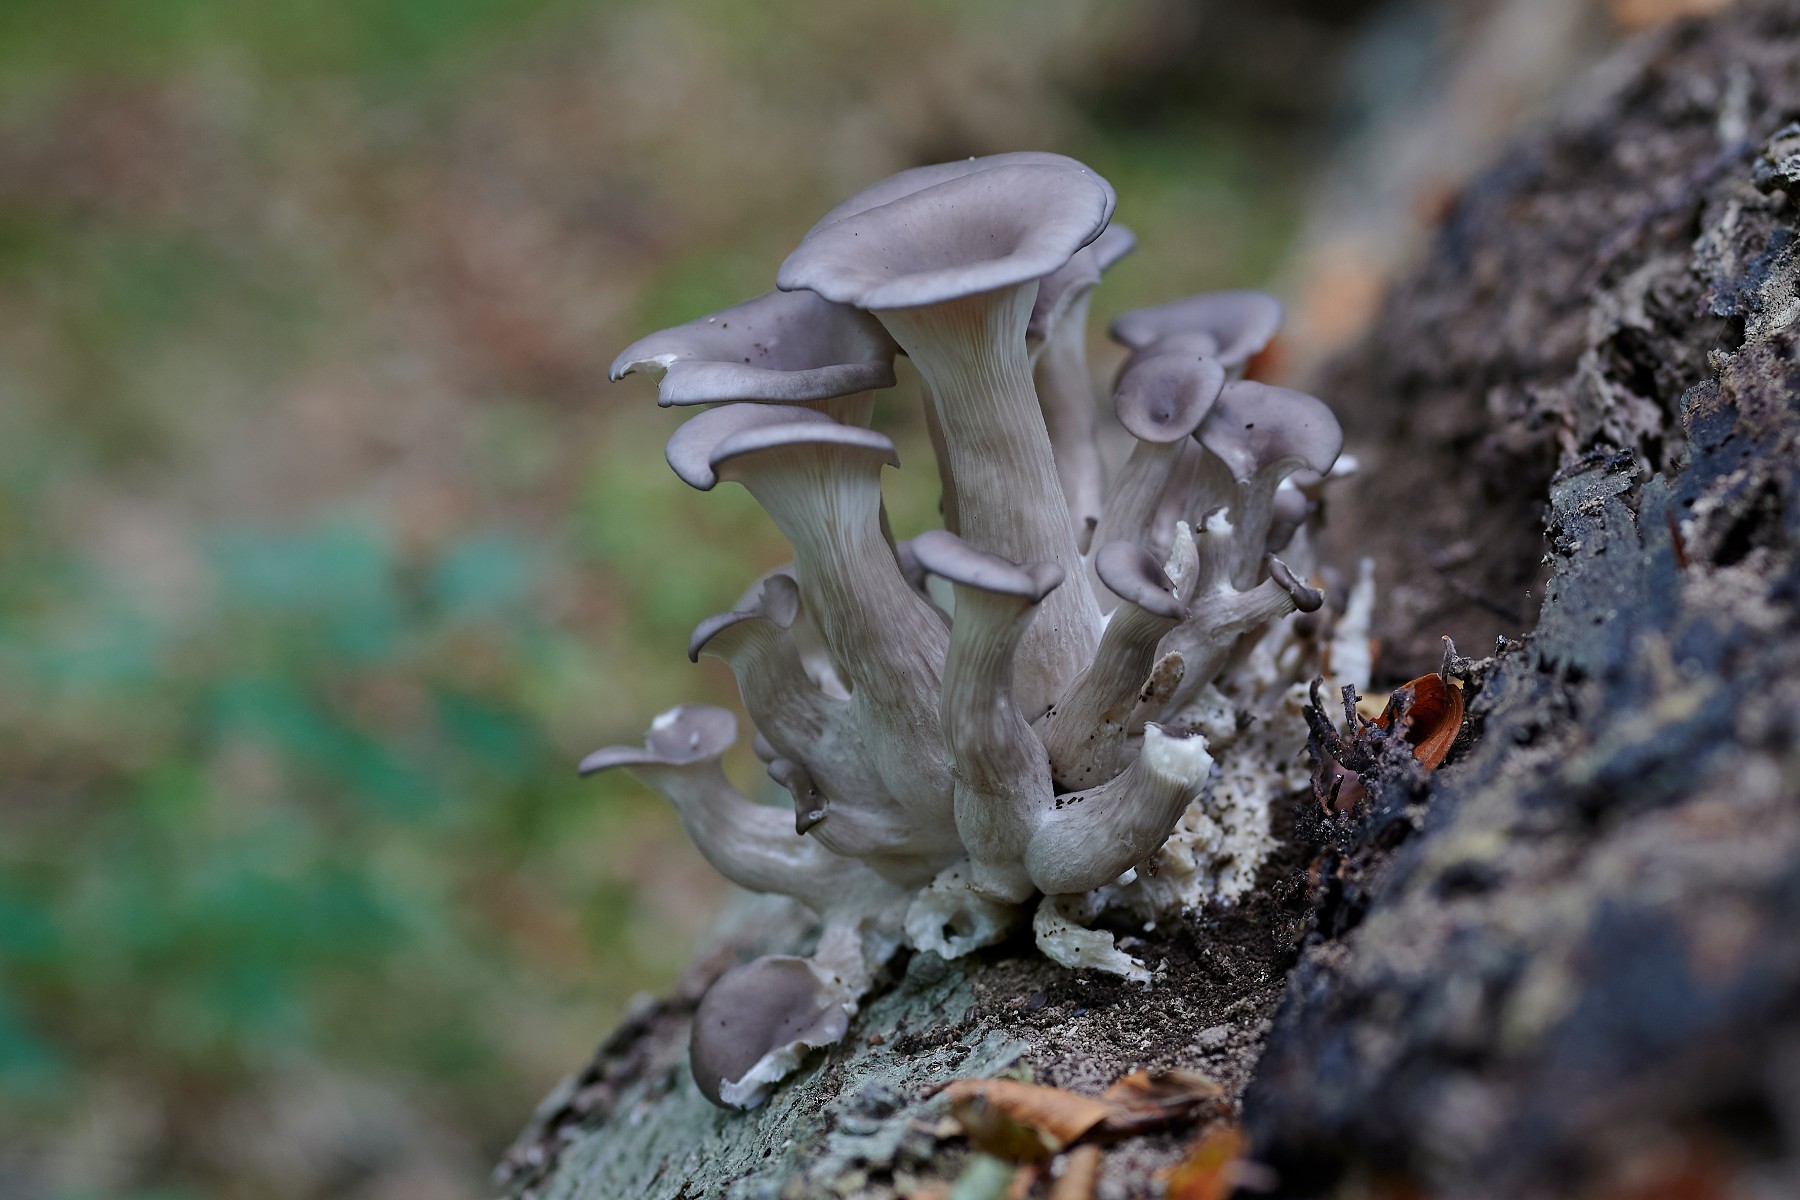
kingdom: Fungi
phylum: Basidiomycota
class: Agaricomycetes
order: Agaricales
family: Pleurotaceae
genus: Pleurotus
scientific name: Pleurotus ostreatus
